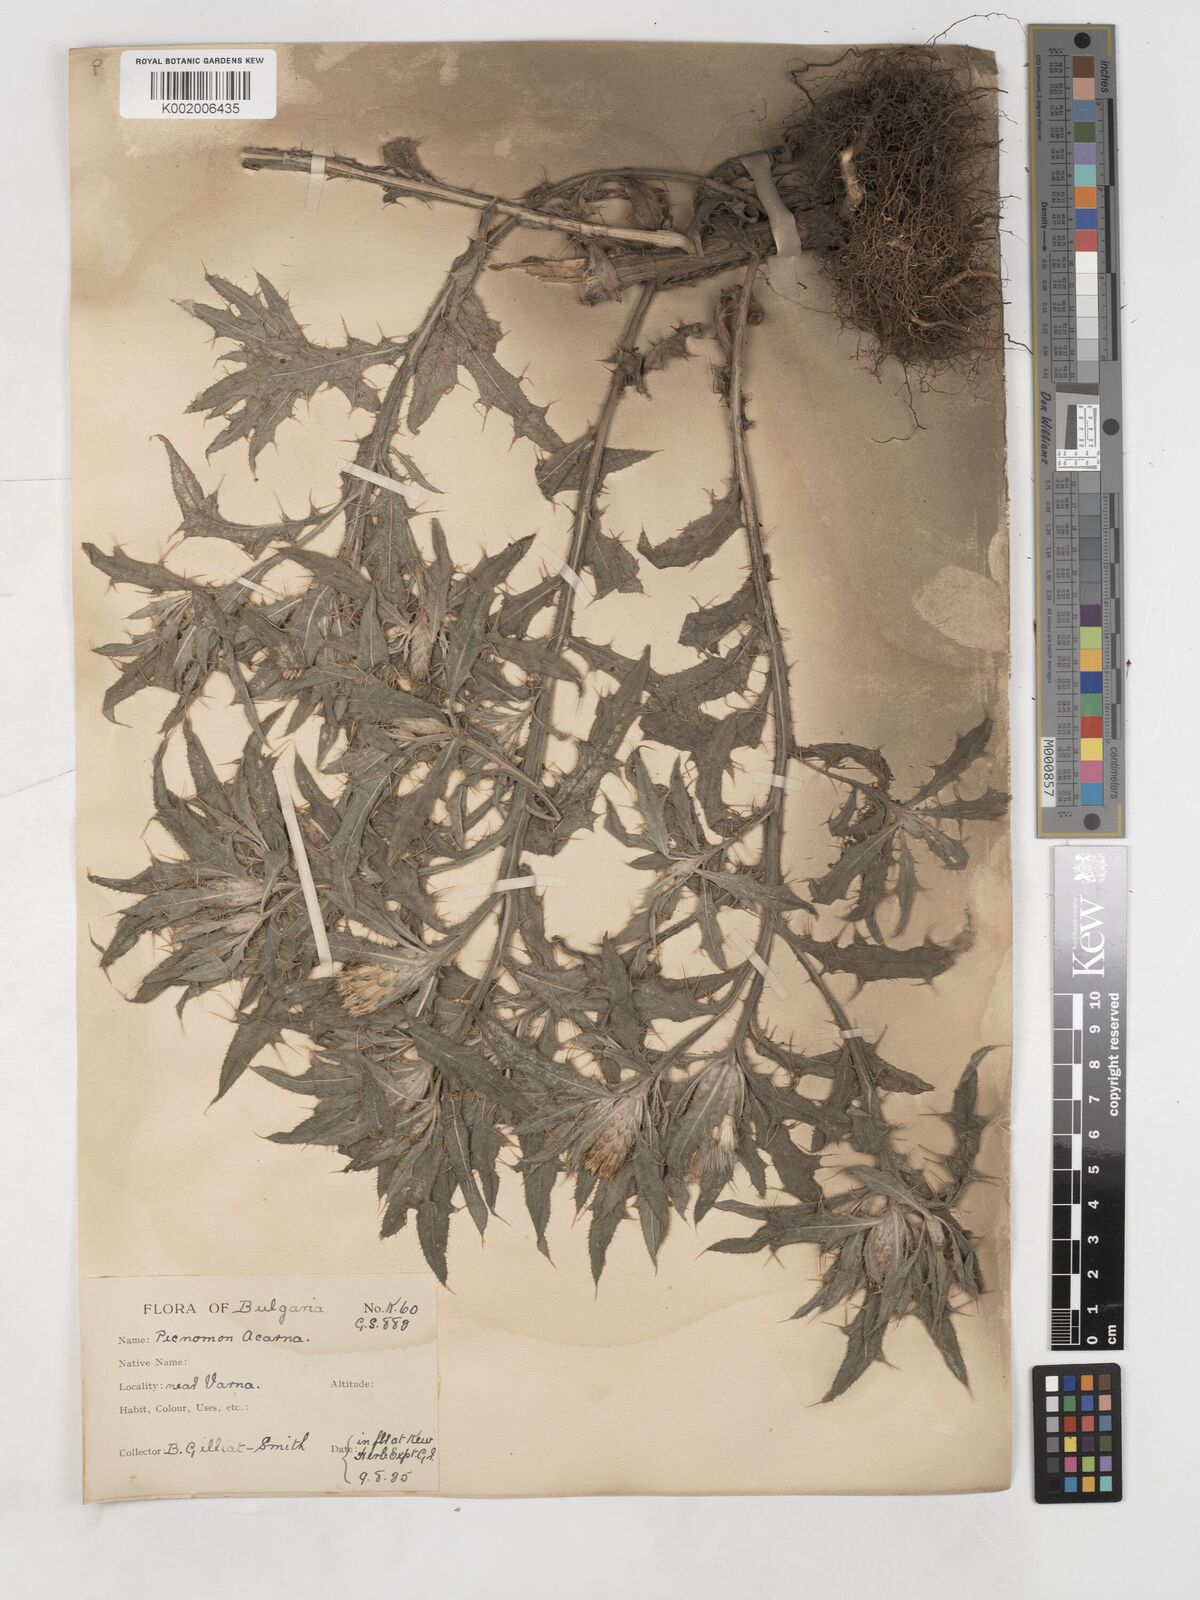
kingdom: Plantae
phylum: Tracheophyta
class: Magnoliopsida
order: Asterales
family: Asteraceae
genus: Picnomon
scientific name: Picnomon acarna
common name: Soldier thistle
